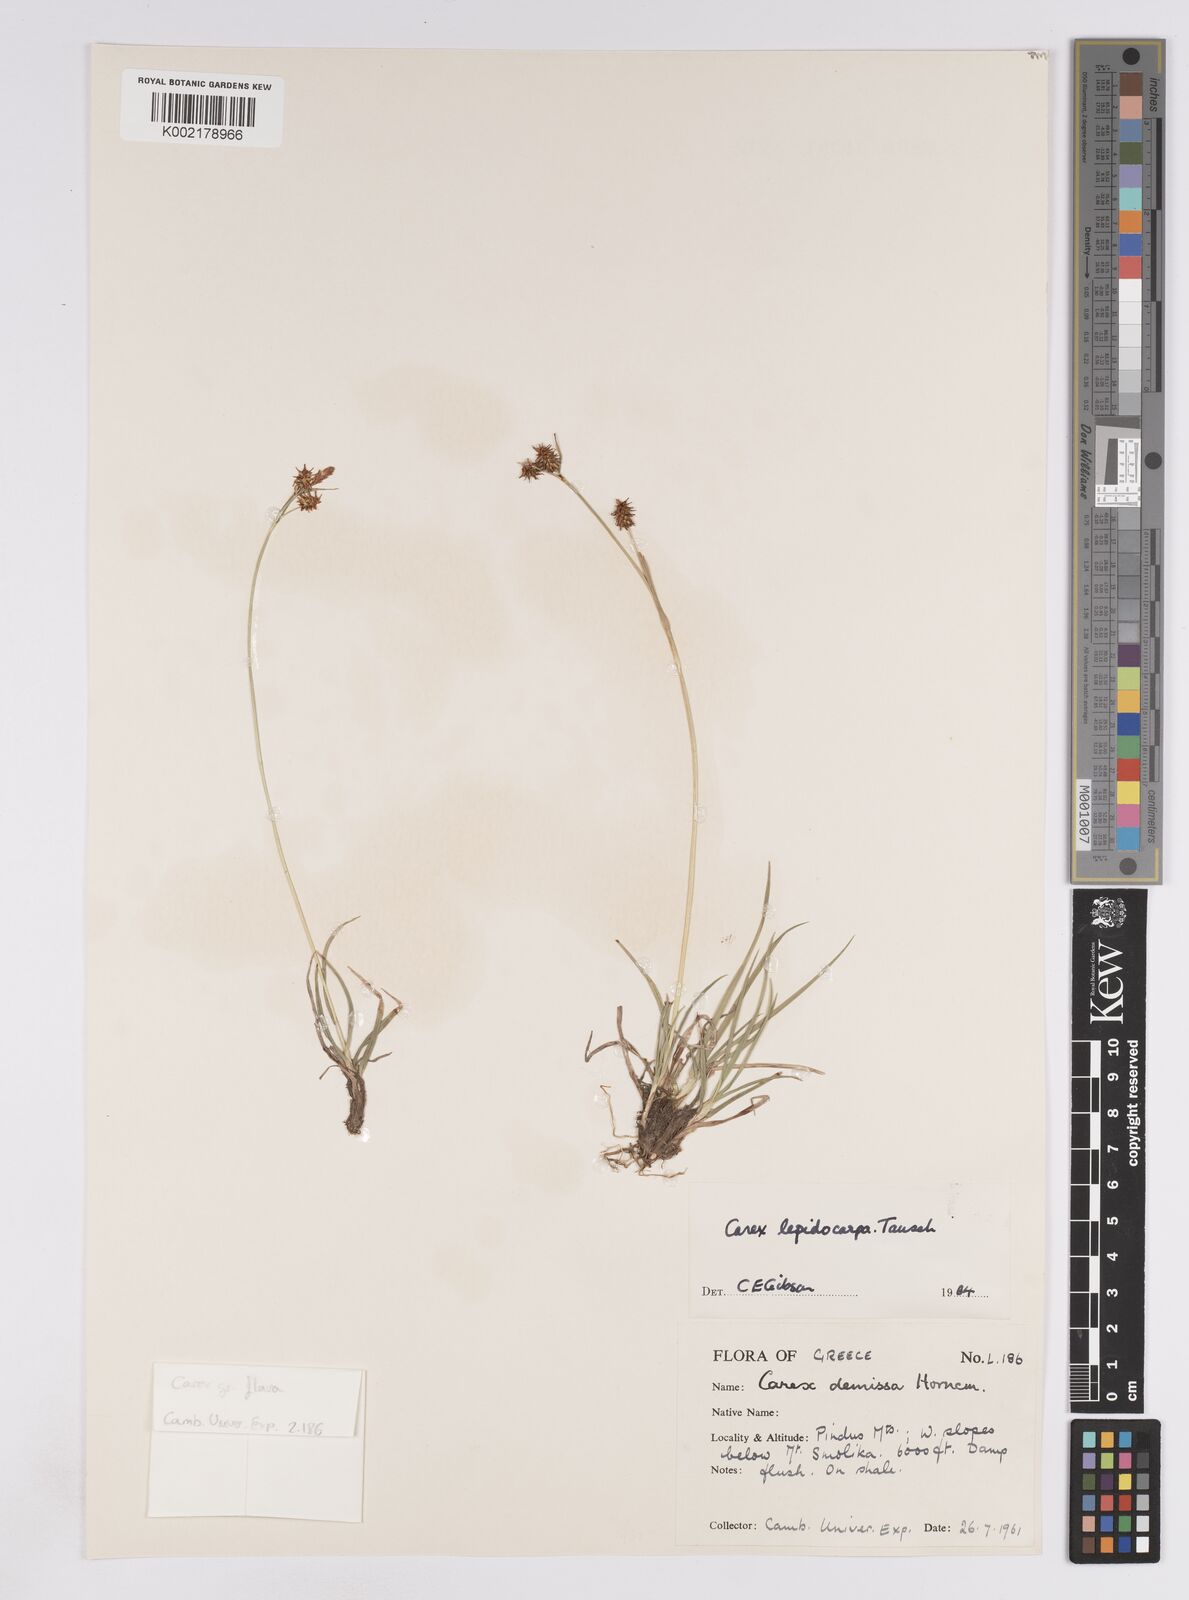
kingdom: Plantae
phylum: Tracheophyta
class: Liliopsida
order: Poales
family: Cyperaceae
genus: Carex
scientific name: Carex lepidocarpa
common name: Long-stalked yellow-sedge
